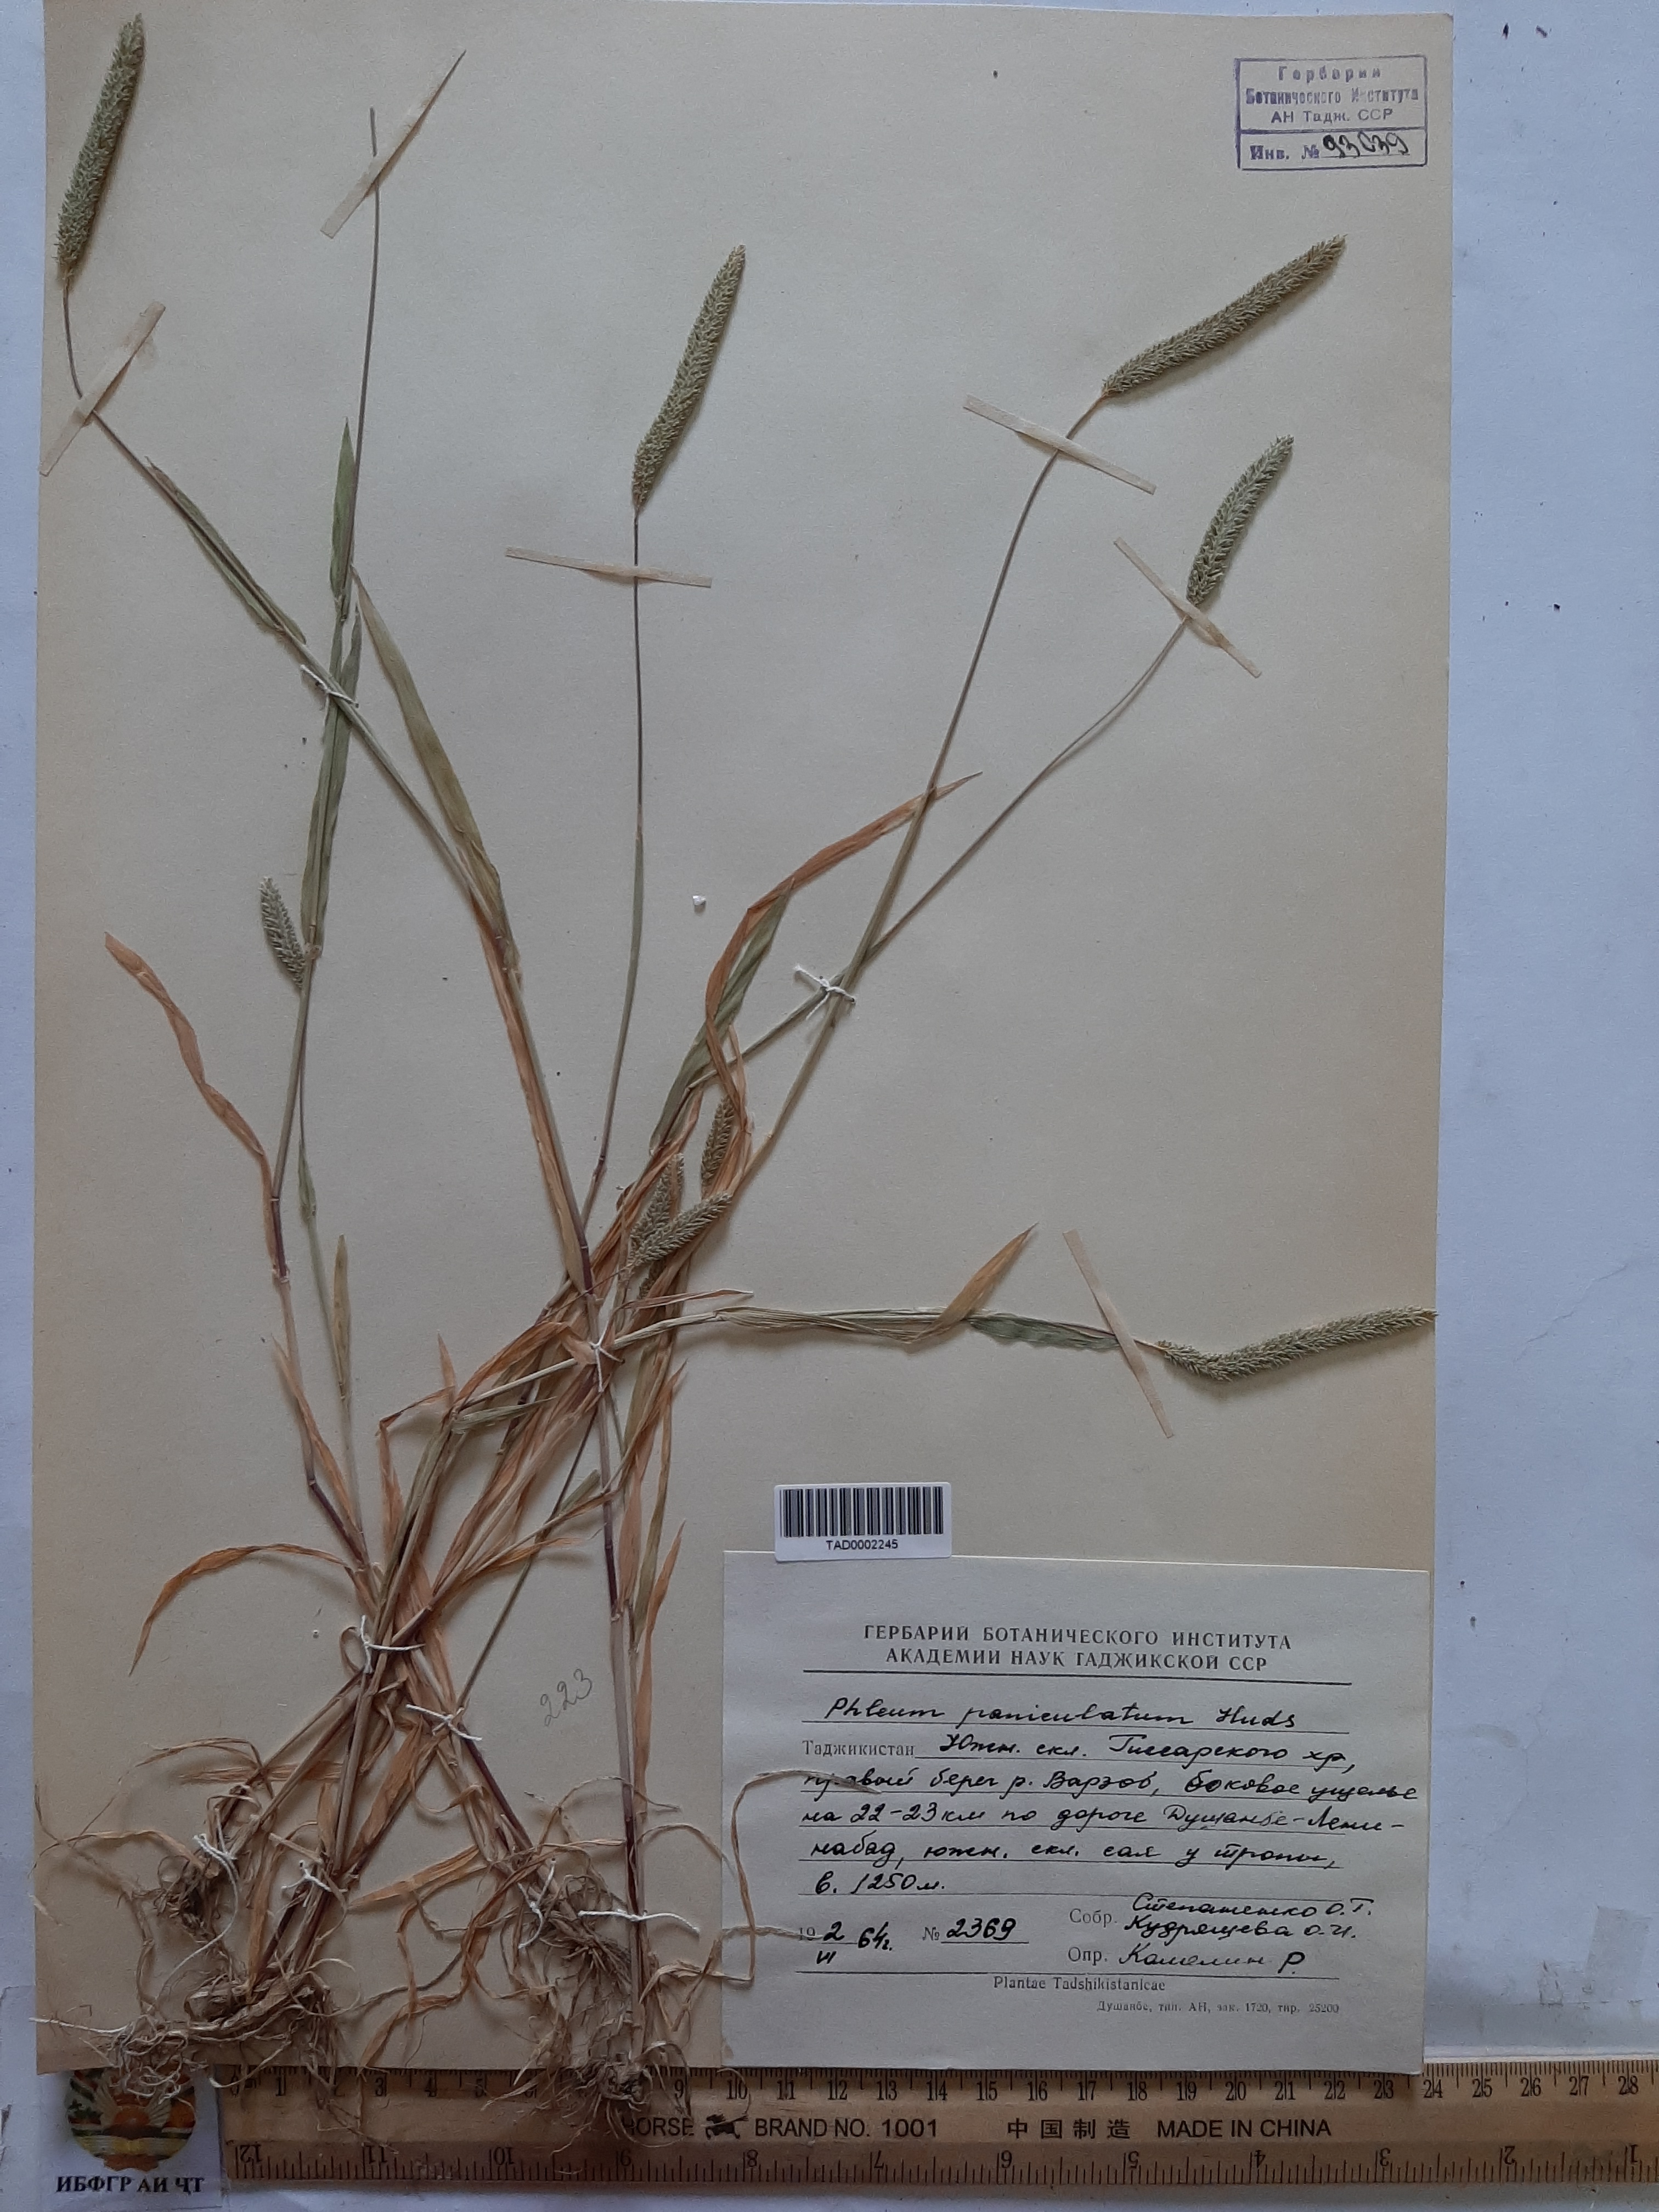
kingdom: Plantae
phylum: Tracheophyta
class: Liliopsida
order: Poales
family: Poaceae
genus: Phleum
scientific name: Phleum paniculatum
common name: British timothy
